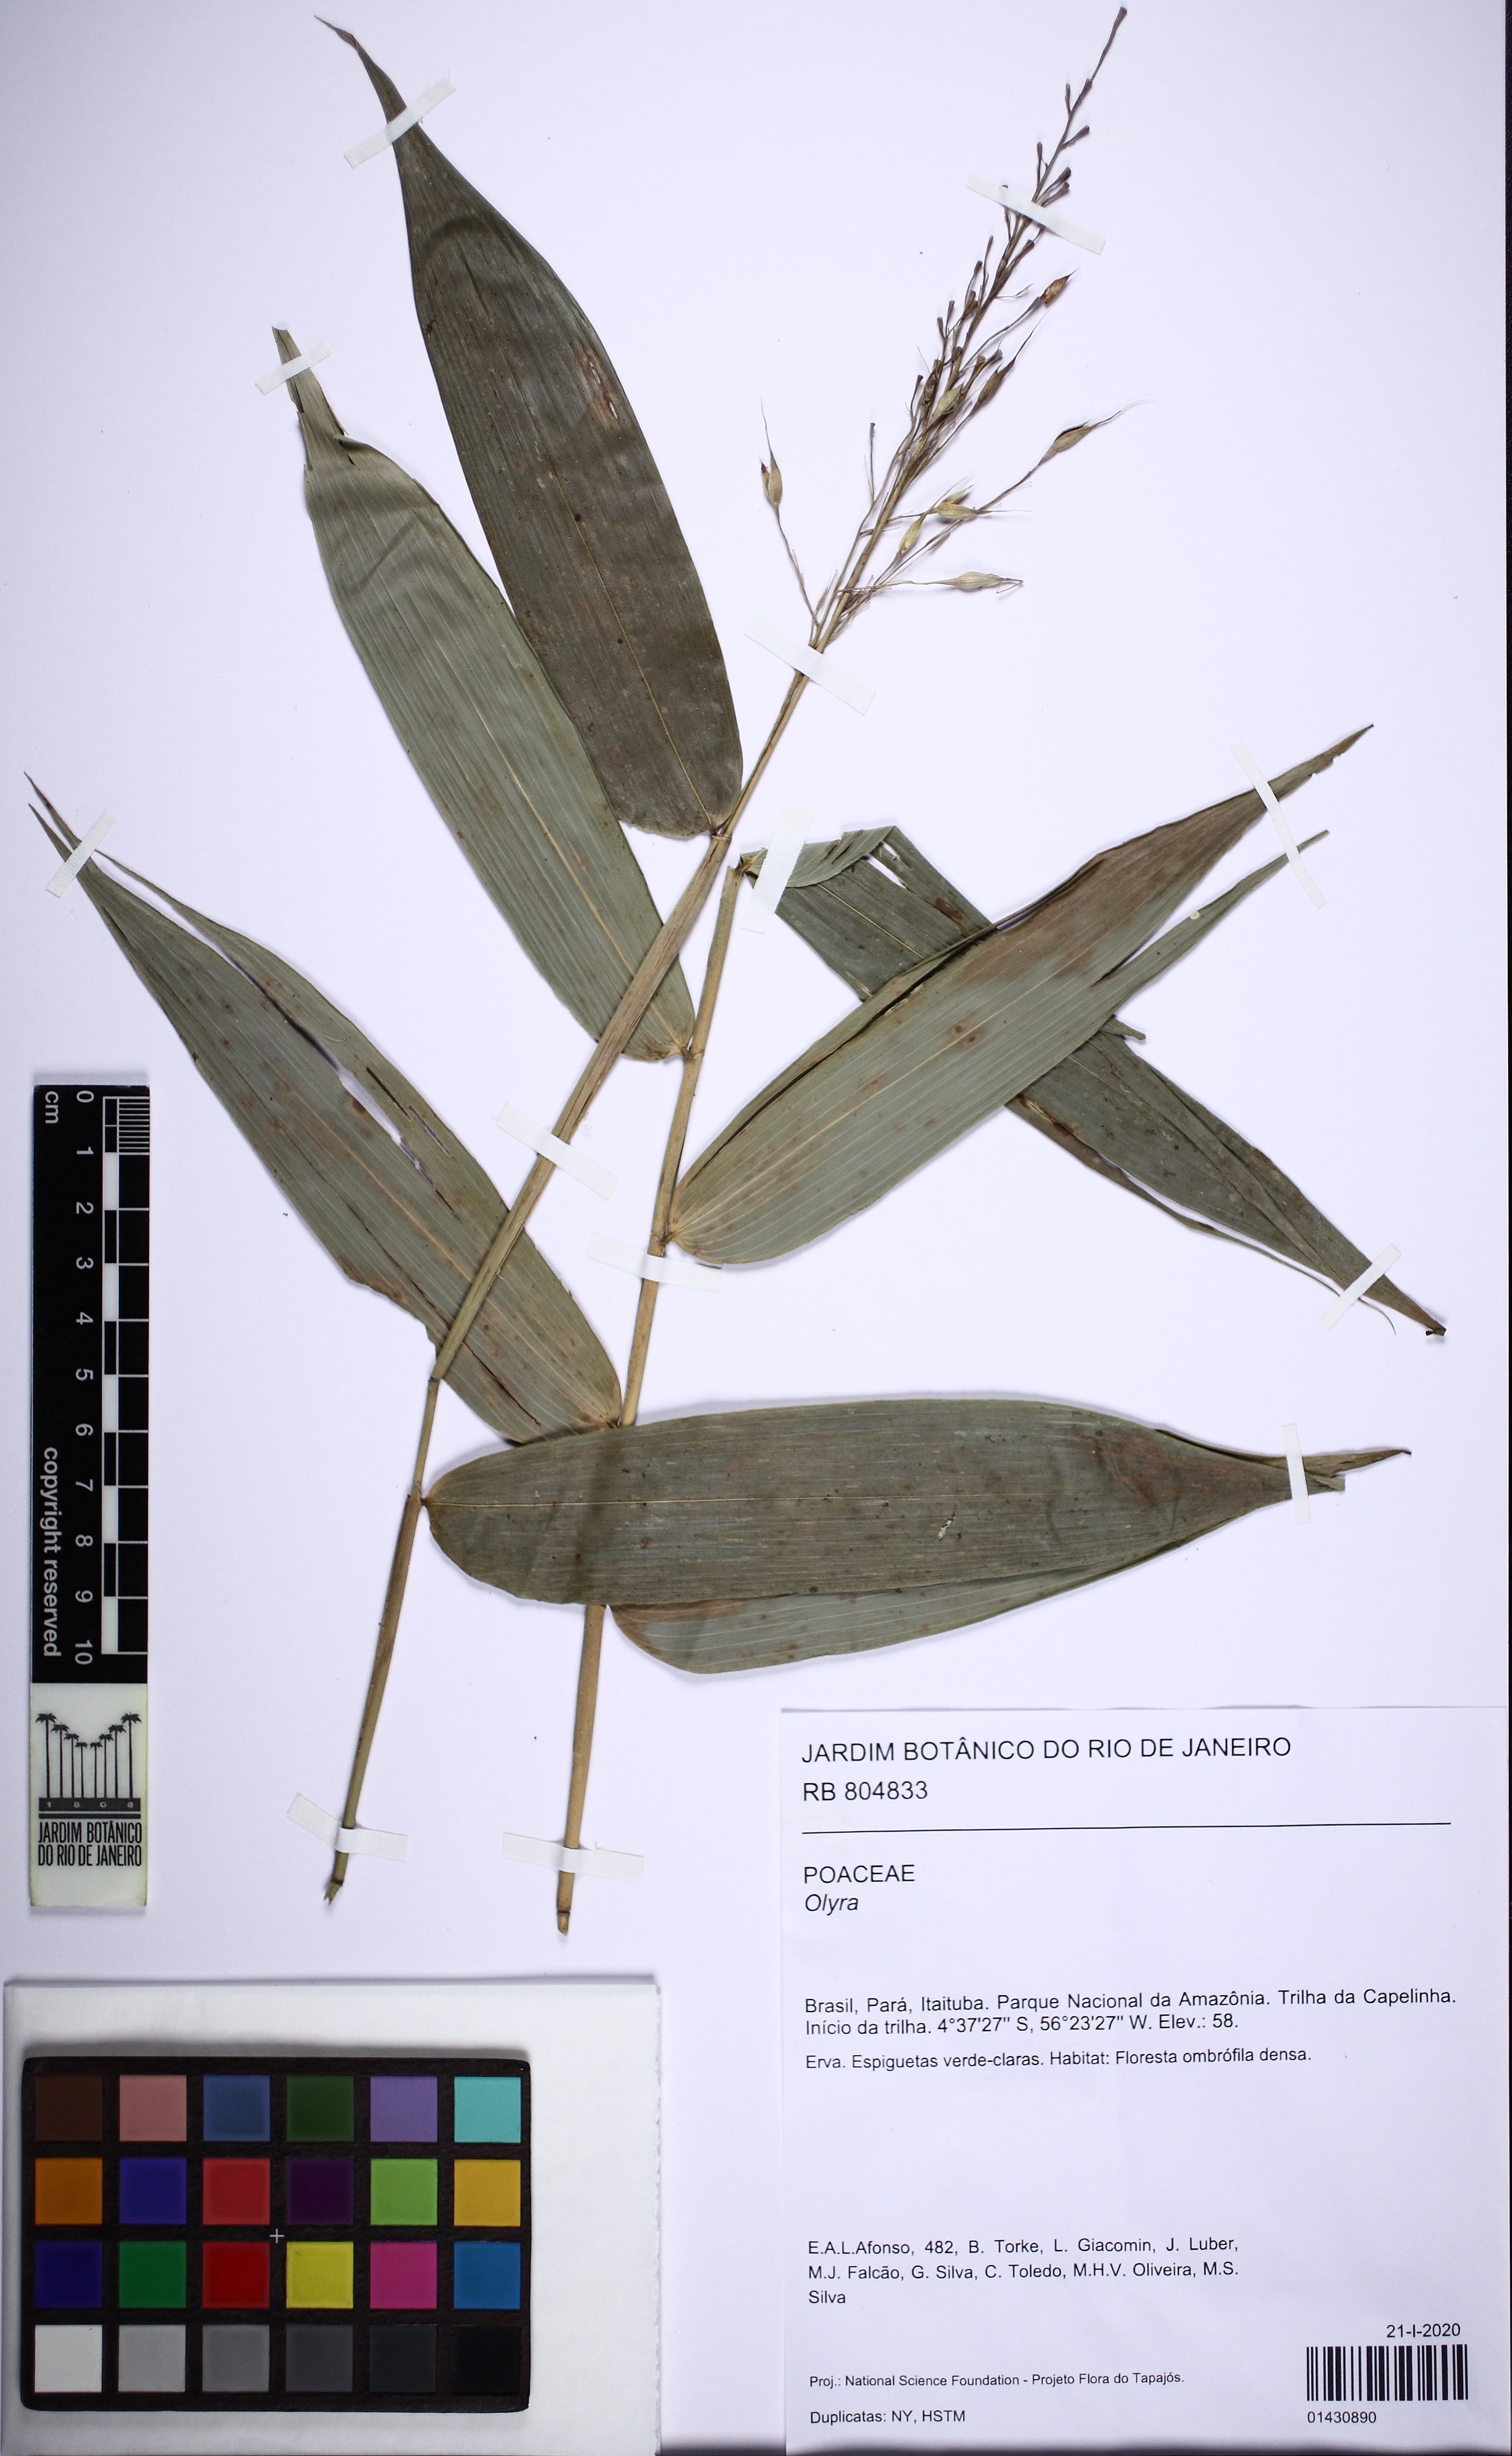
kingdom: Plantae
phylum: Tracheophyta
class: Liliopsida
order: Poales
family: Poaceae
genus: Olyra
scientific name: Olyra
